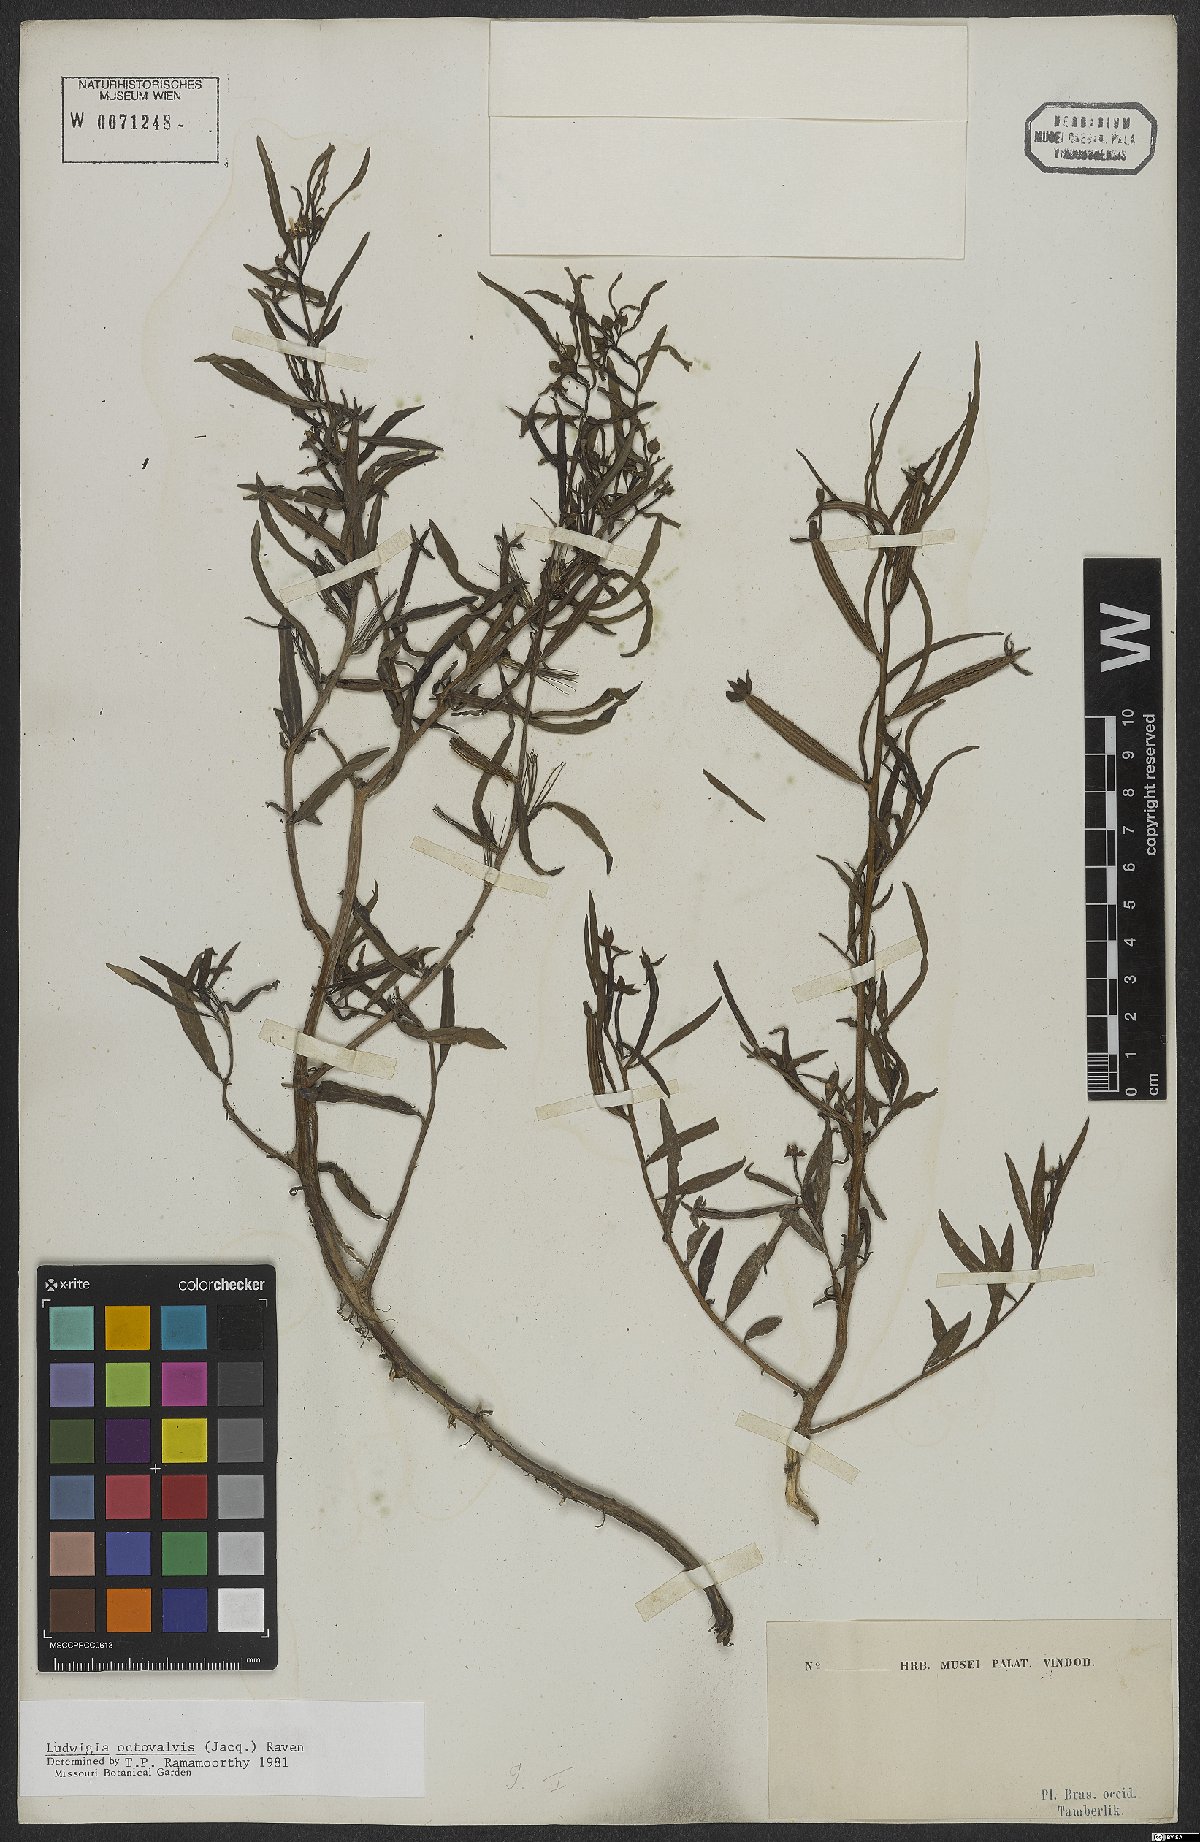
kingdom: Plantae
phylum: Tracheophyta
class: Magnoliopsida
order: Myrtales
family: Onagraceae
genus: Ludwigia
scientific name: Ludwigia octovalvis
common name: Water-primrose
